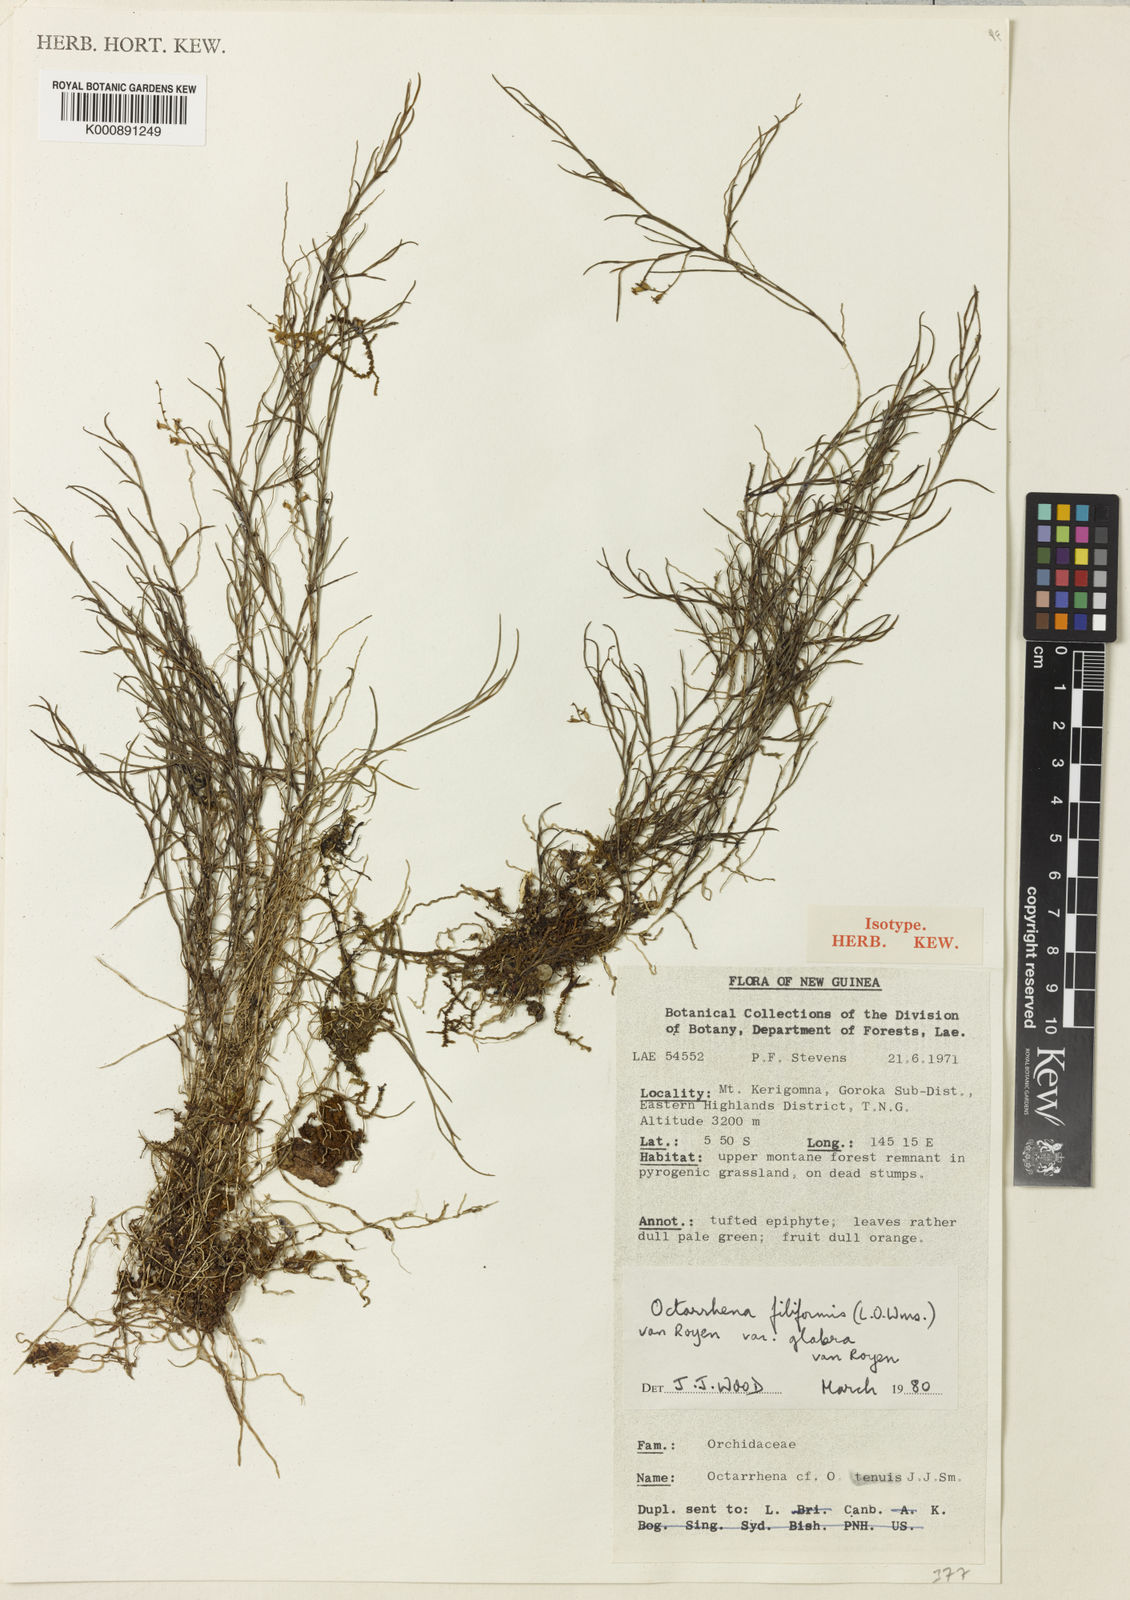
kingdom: Plantae
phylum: Tracheophyta
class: Liliopsida
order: Asparagales
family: Orchidaceae
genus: Octarrhena
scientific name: Octarrhena filiformis
